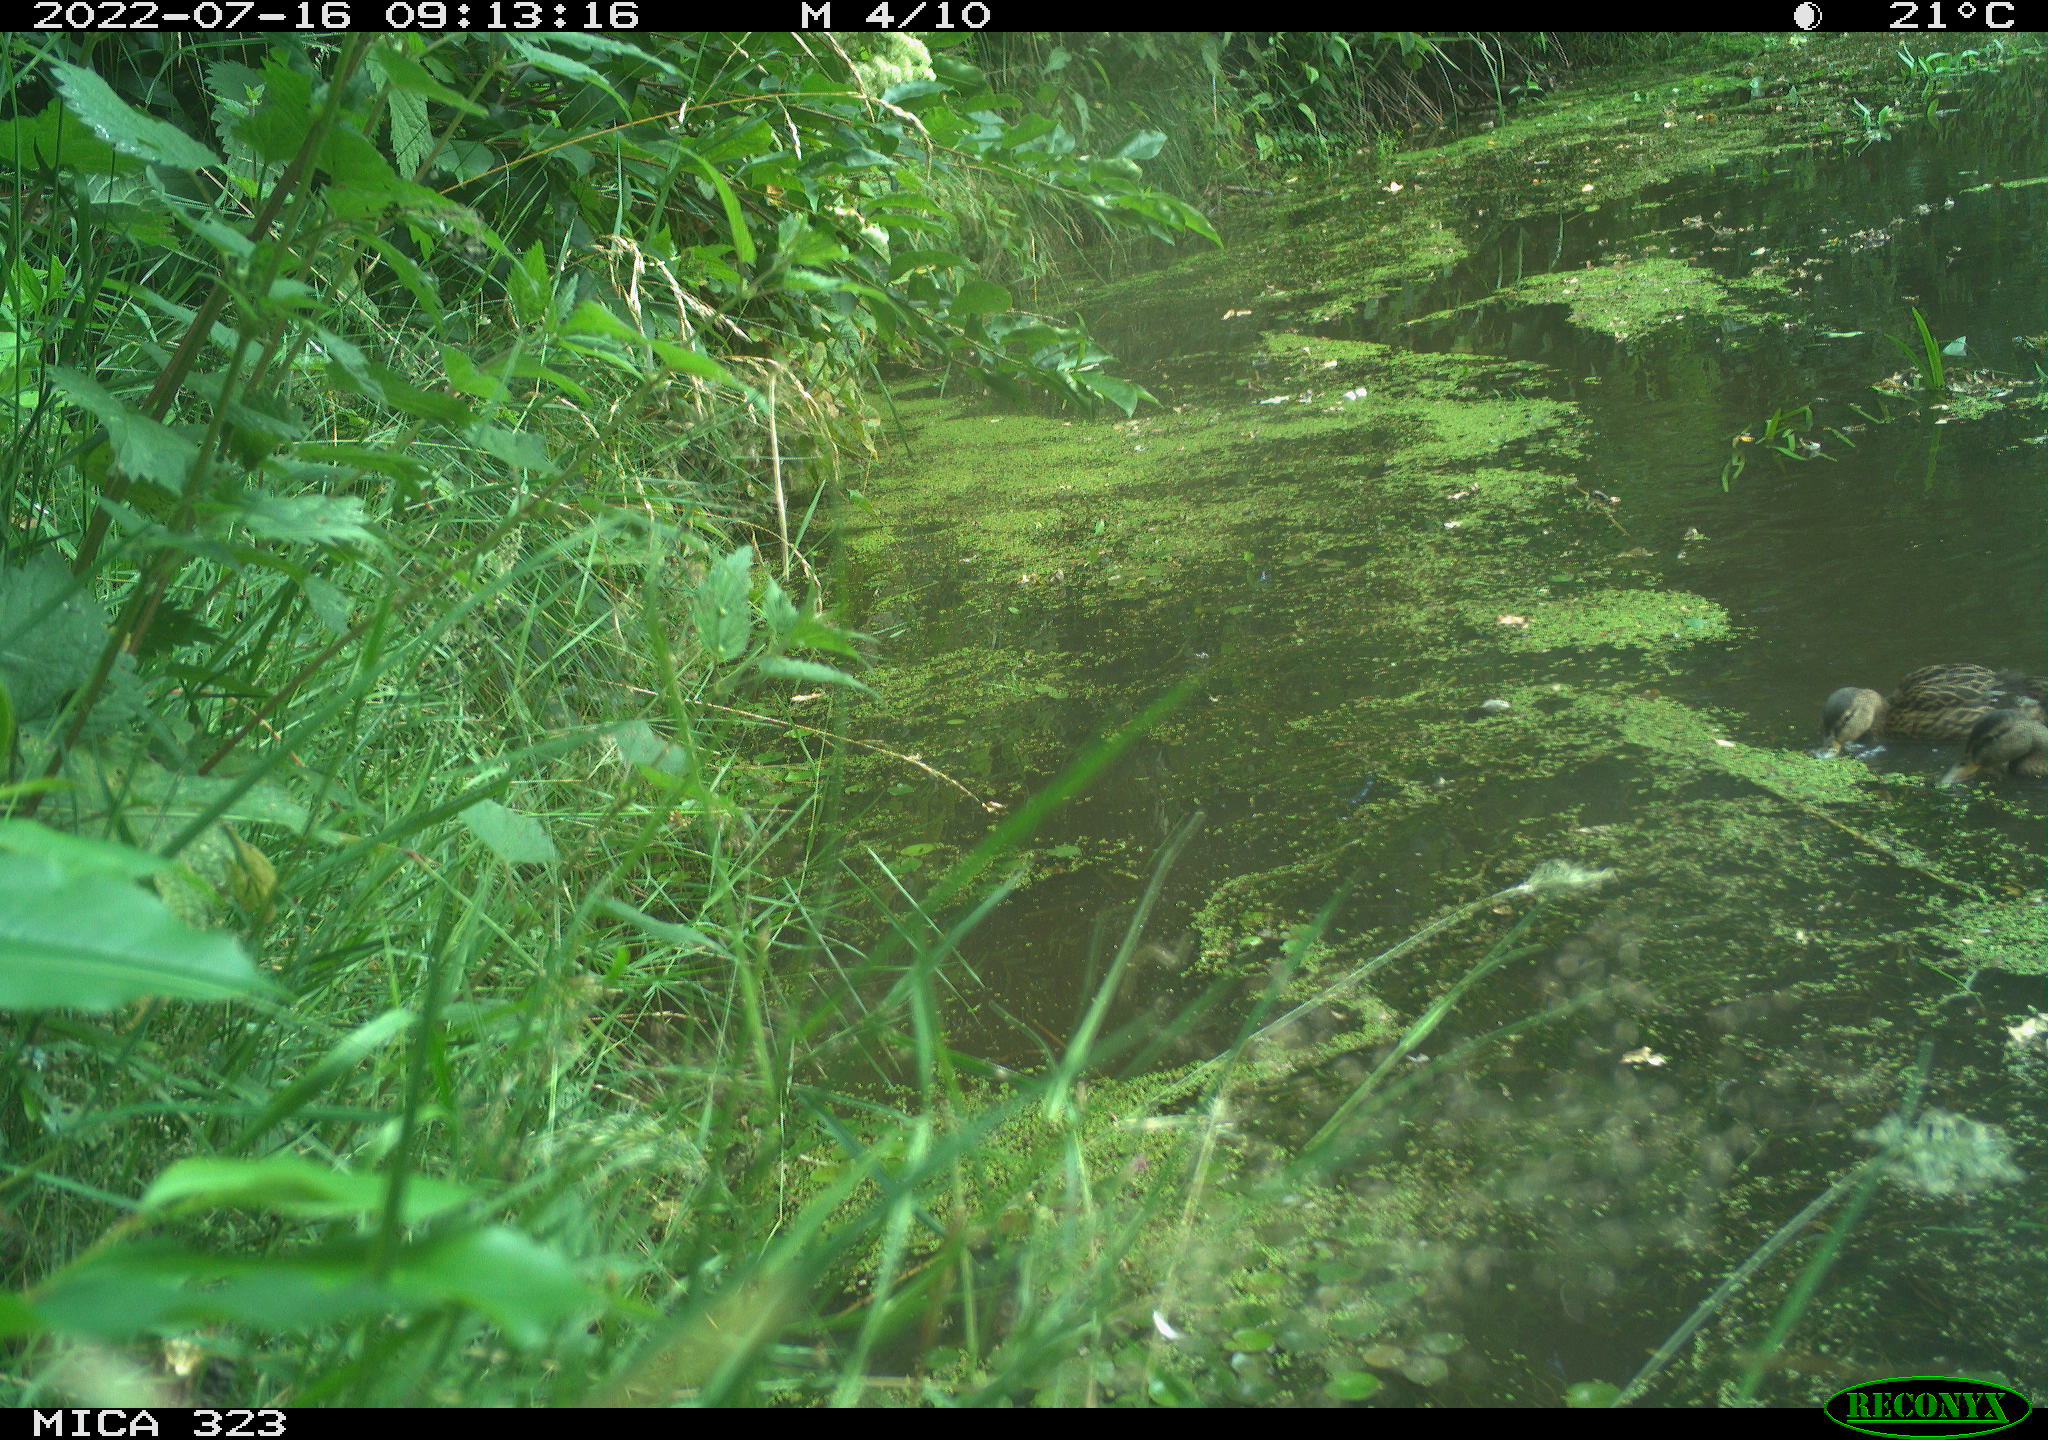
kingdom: Animalia
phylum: Chordata
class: Aves
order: Anseriformes
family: Anatidae
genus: Anas
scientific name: Anas platyrhynchos
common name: Mallard
